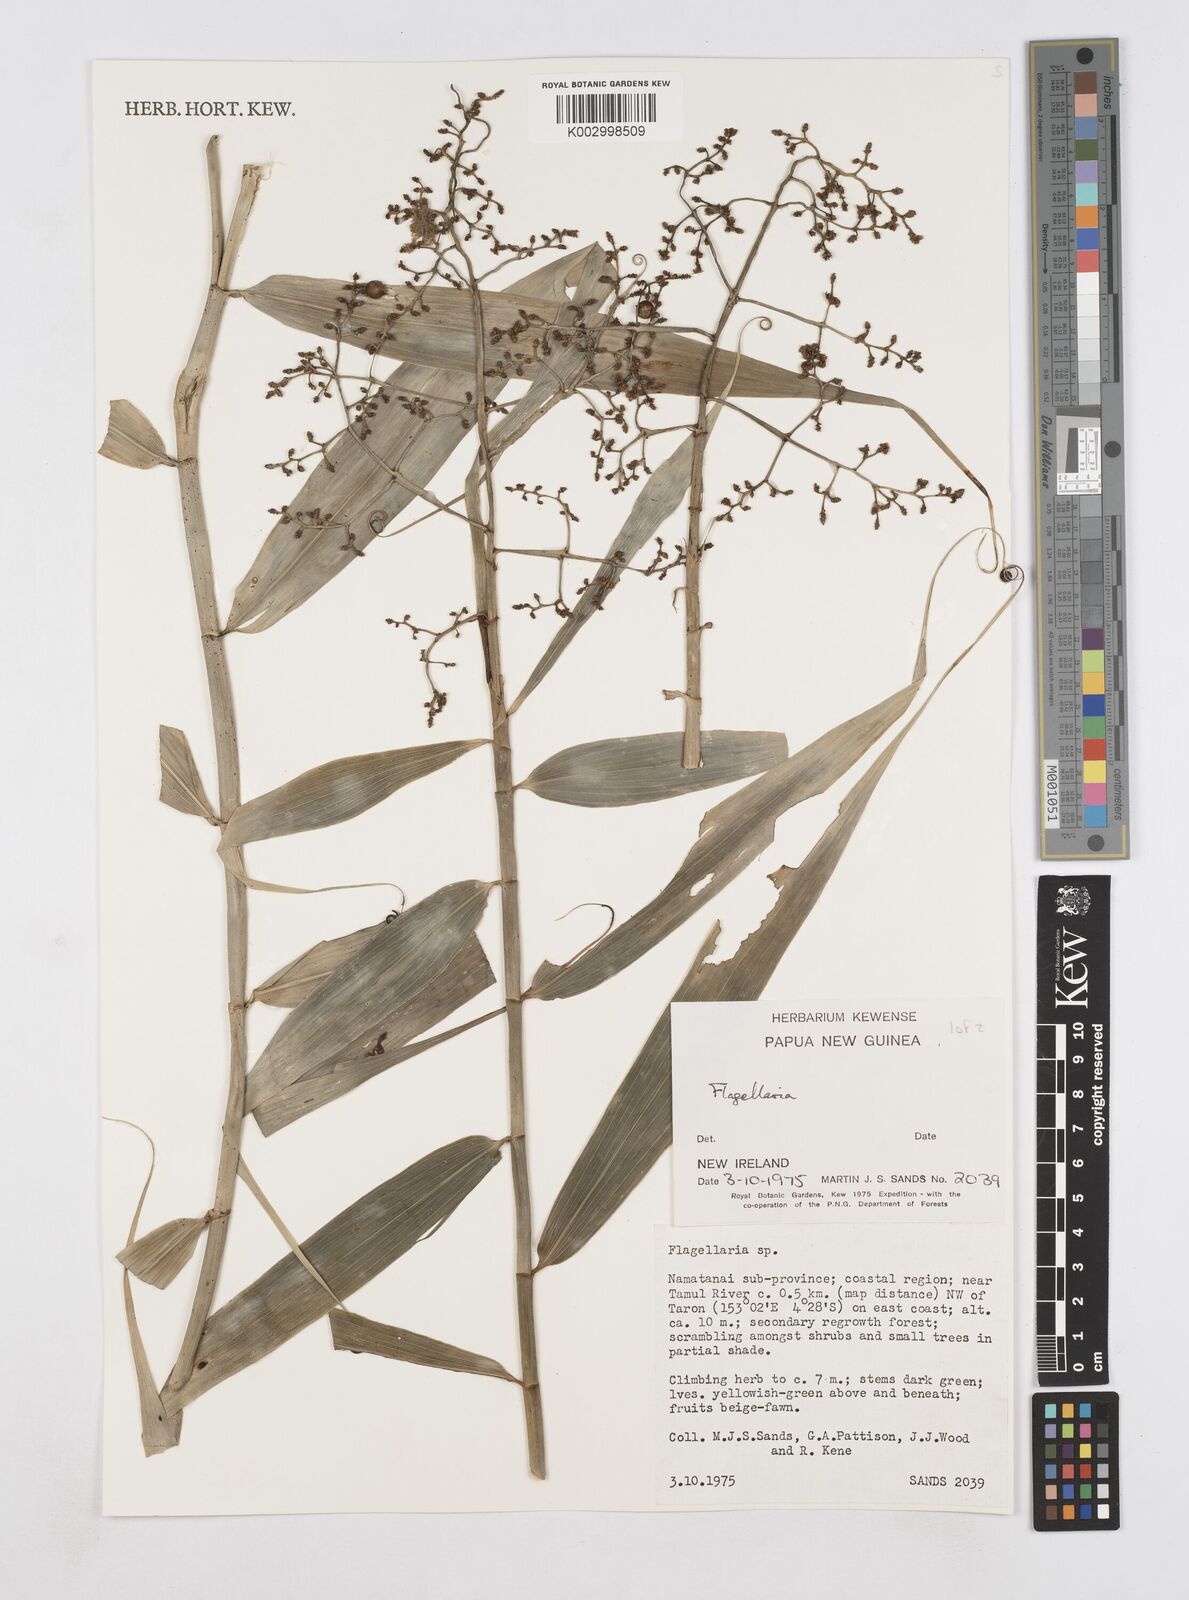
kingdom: Plantae
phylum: Tracheophyta
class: Liliopsida
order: Poales
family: Flagellariaceae
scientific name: Flagellariaceae
